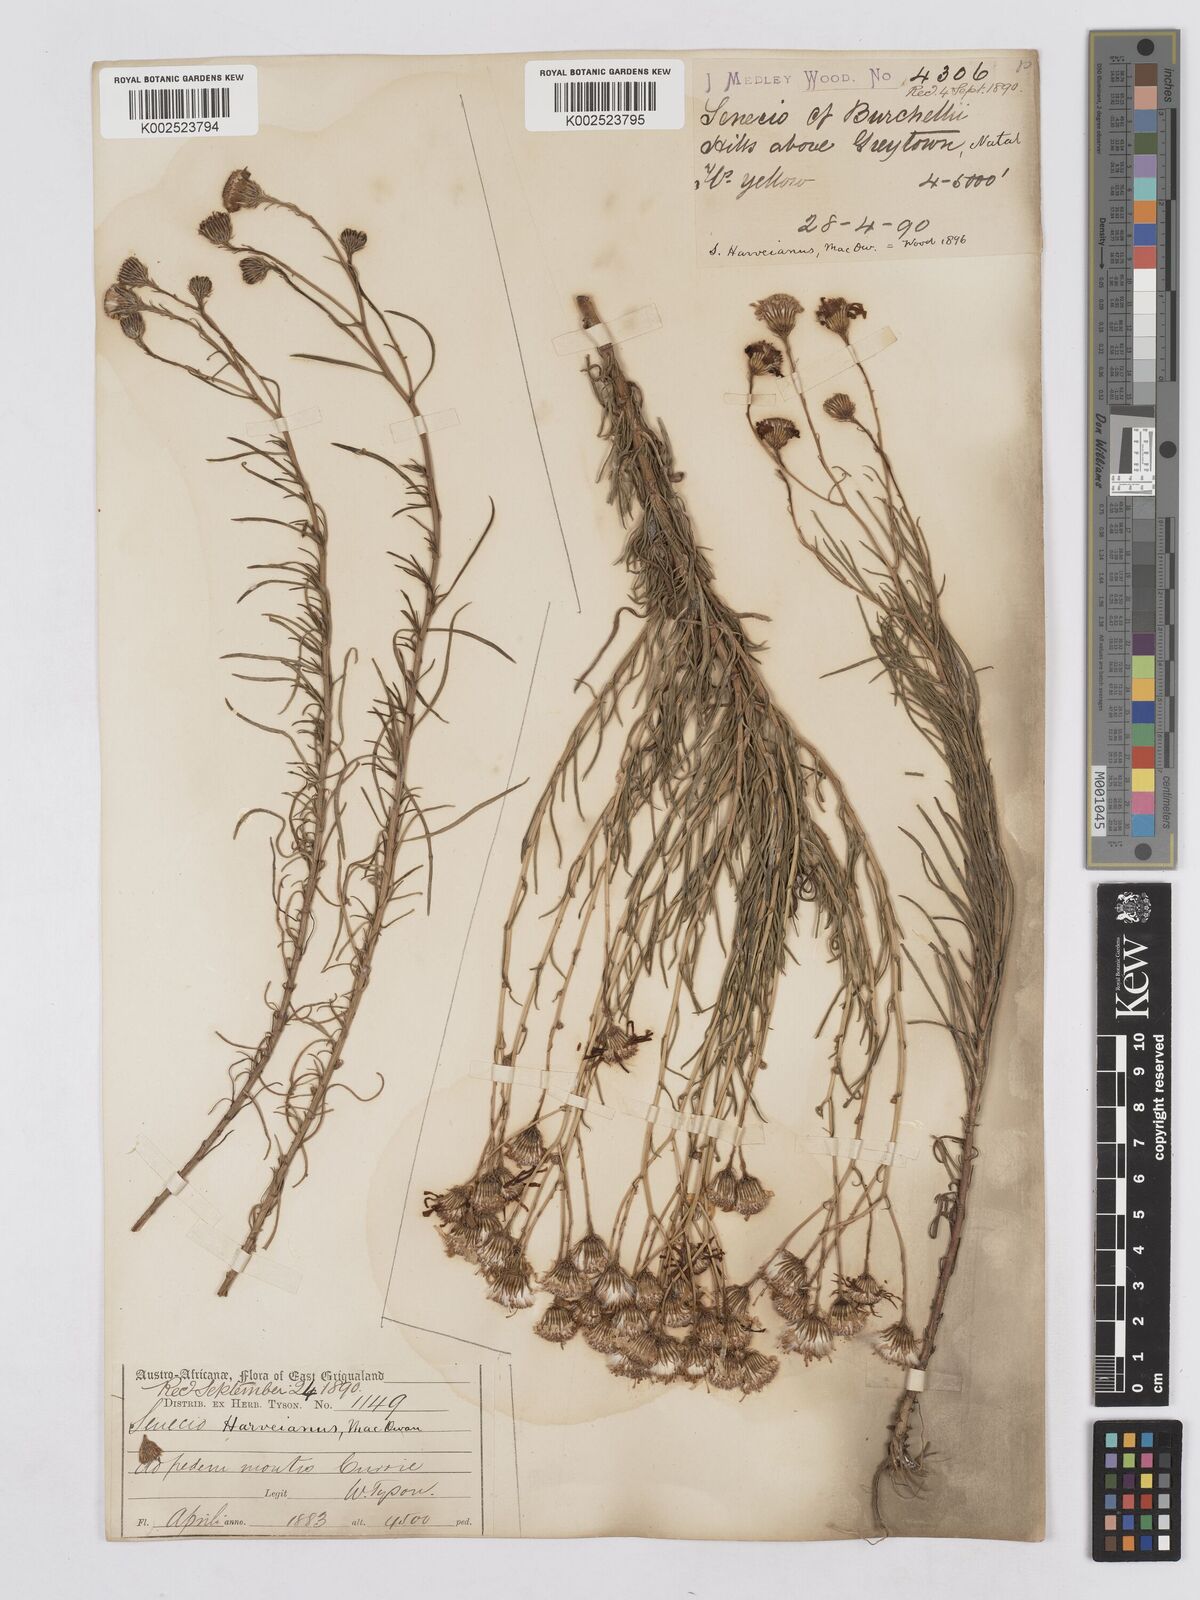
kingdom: Plantae
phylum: Tracheophyta
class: Magnoliopsida
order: Asterales
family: Asteraceae
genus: Senecio
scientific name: Senecio harveyanus
